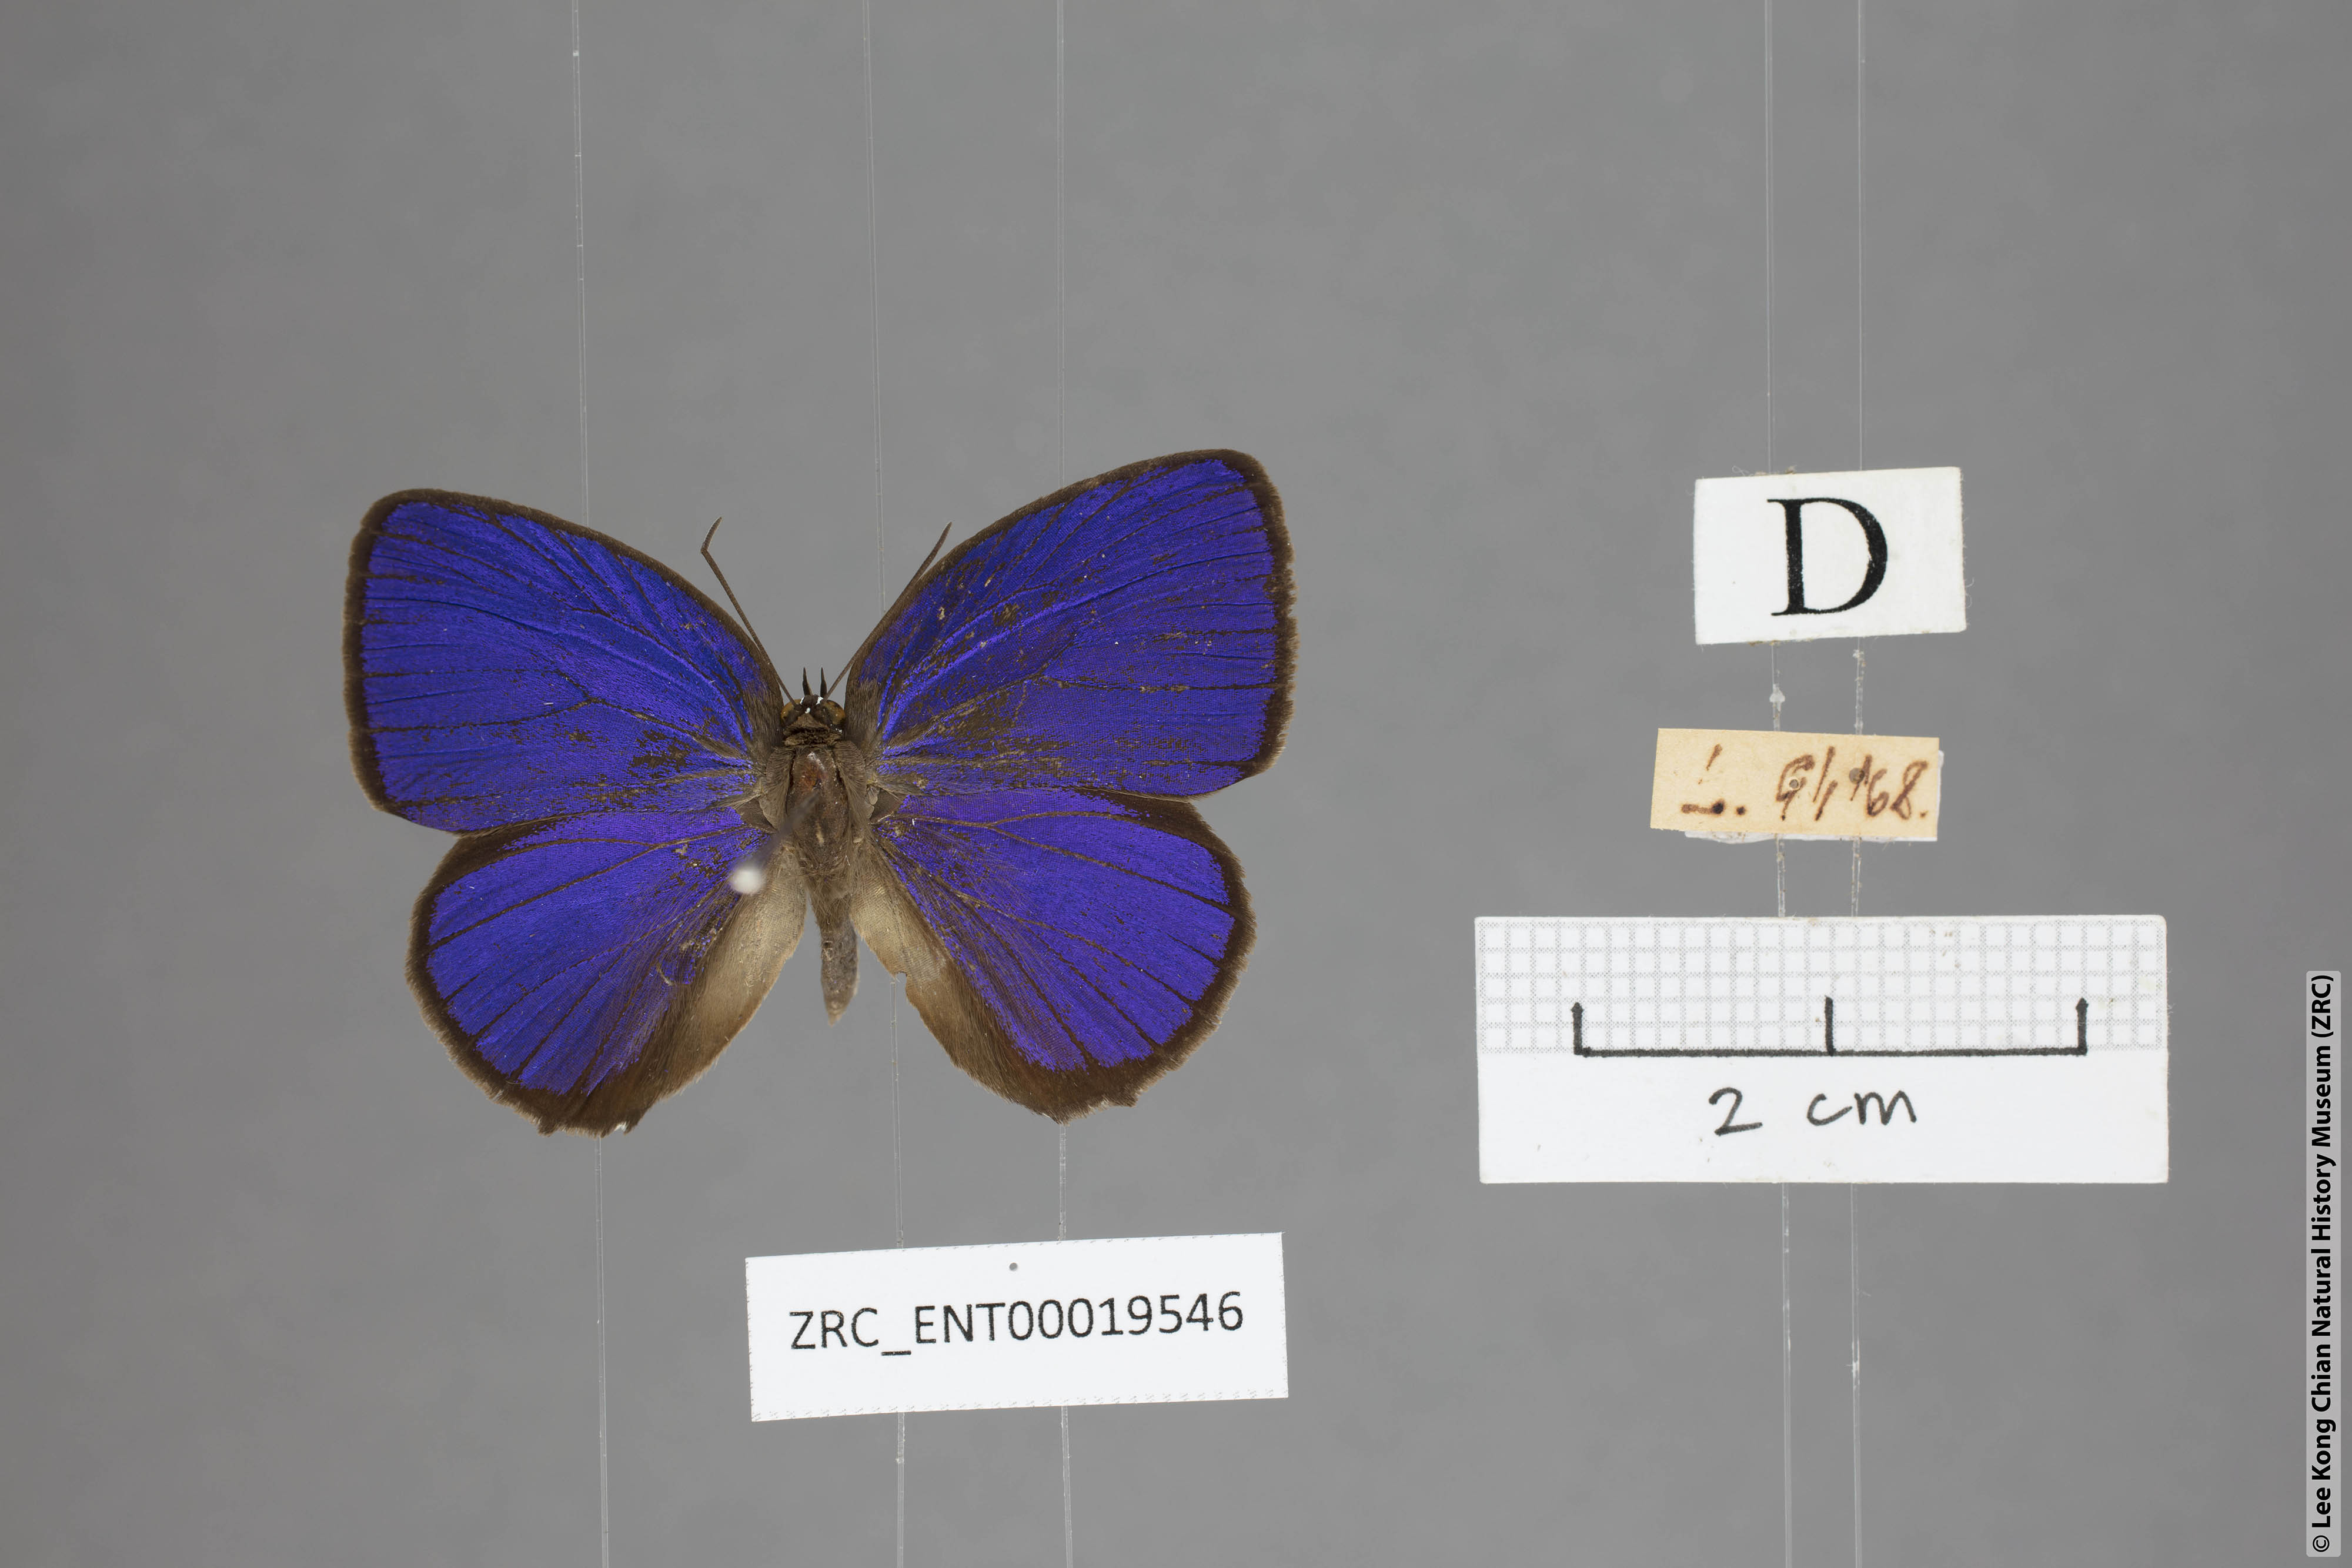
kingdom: Animalia
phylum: Arthropoda
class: Insecta
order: Lepidoptera
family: Lycaenidae
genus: Arhopala
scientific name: Arhopala hypomuta
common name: Violet oakblue
